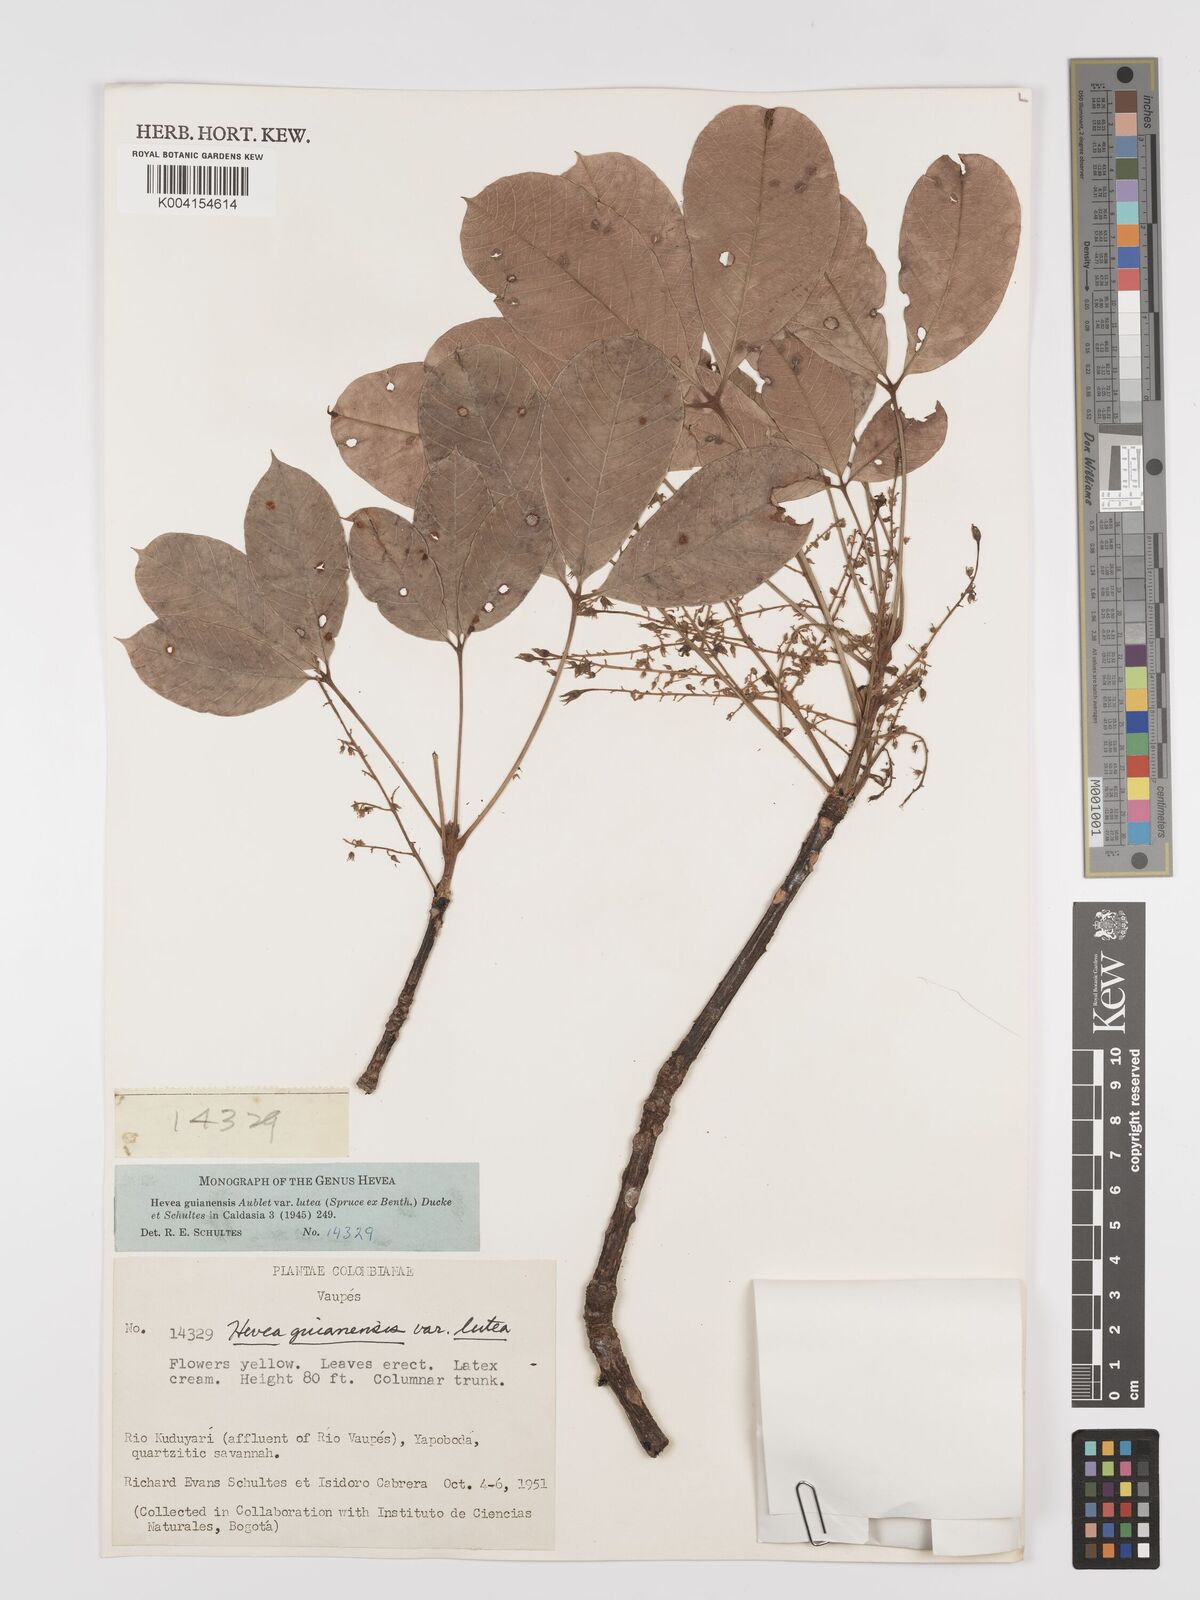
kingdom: Plantae
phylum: Tracheophyta
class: Magnoliopsida
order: Malpighiales
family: Euphorbiaceae
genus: Hevea
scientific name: Hevea guianensis
